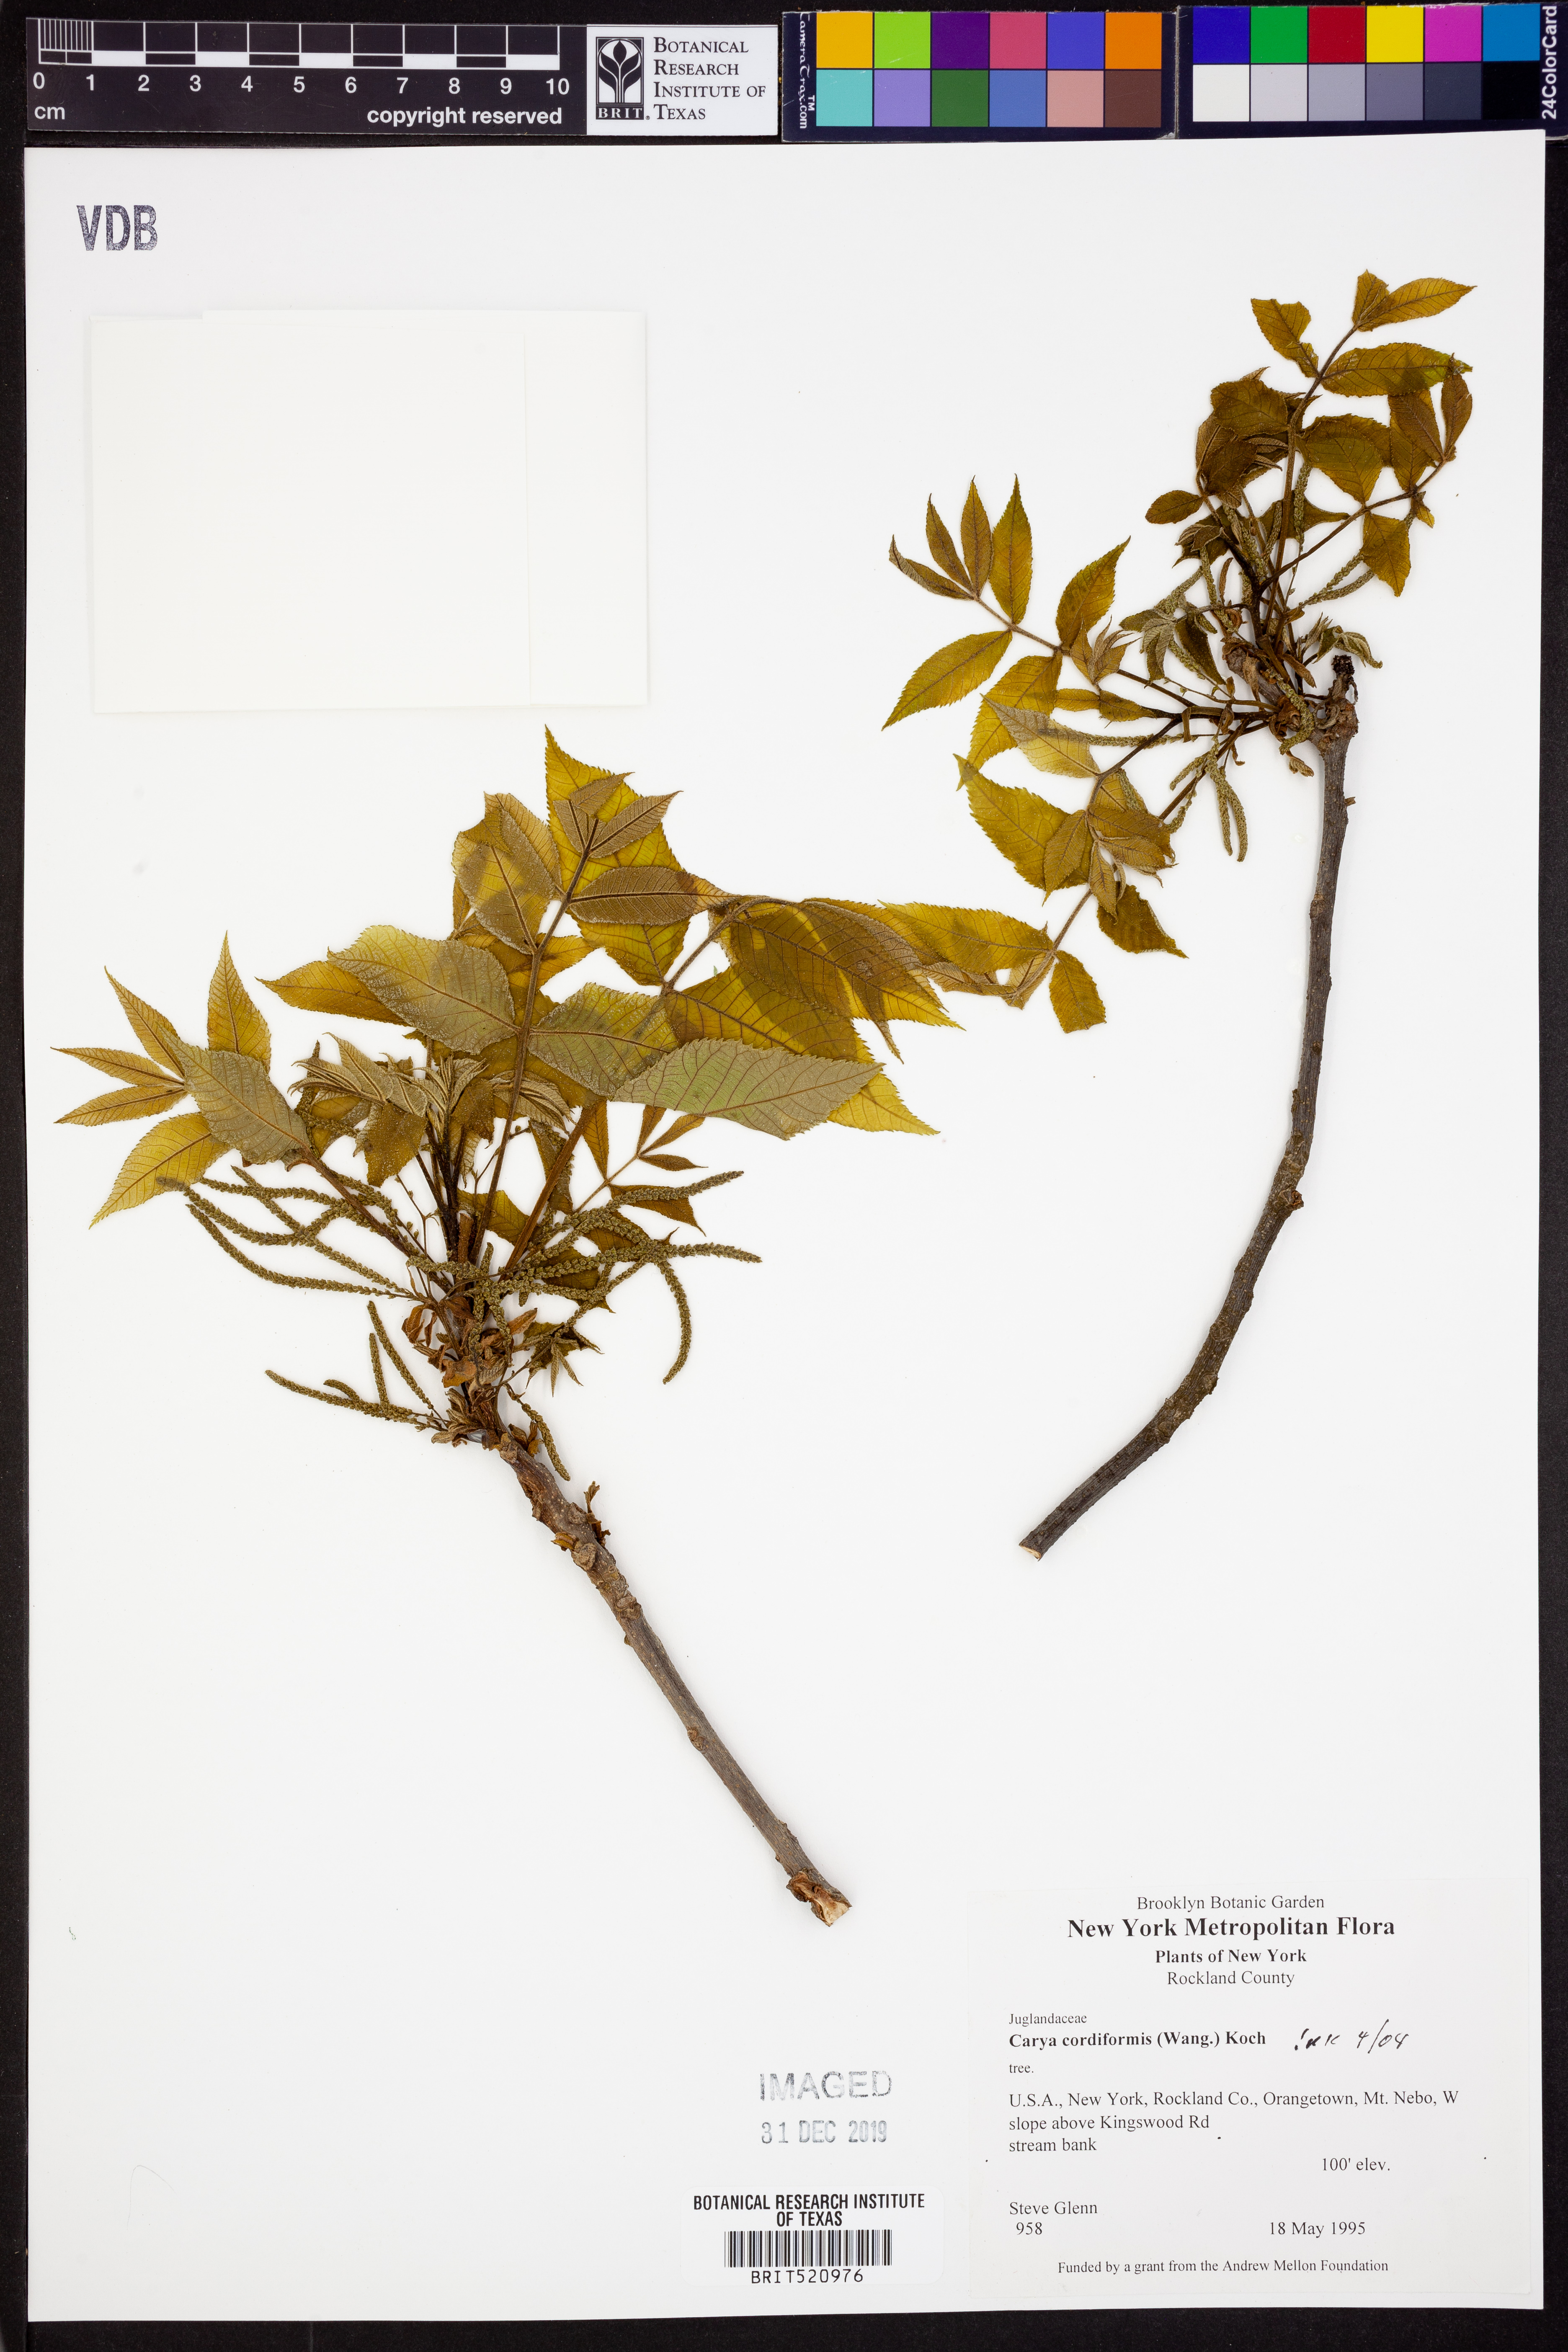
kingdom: Plantae
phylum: Tracheophyta
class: Magnoliopsida
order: Fagales
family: Juglandaceae
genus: Carya
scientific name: Carya cordiformis
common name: Bitternut hickory
